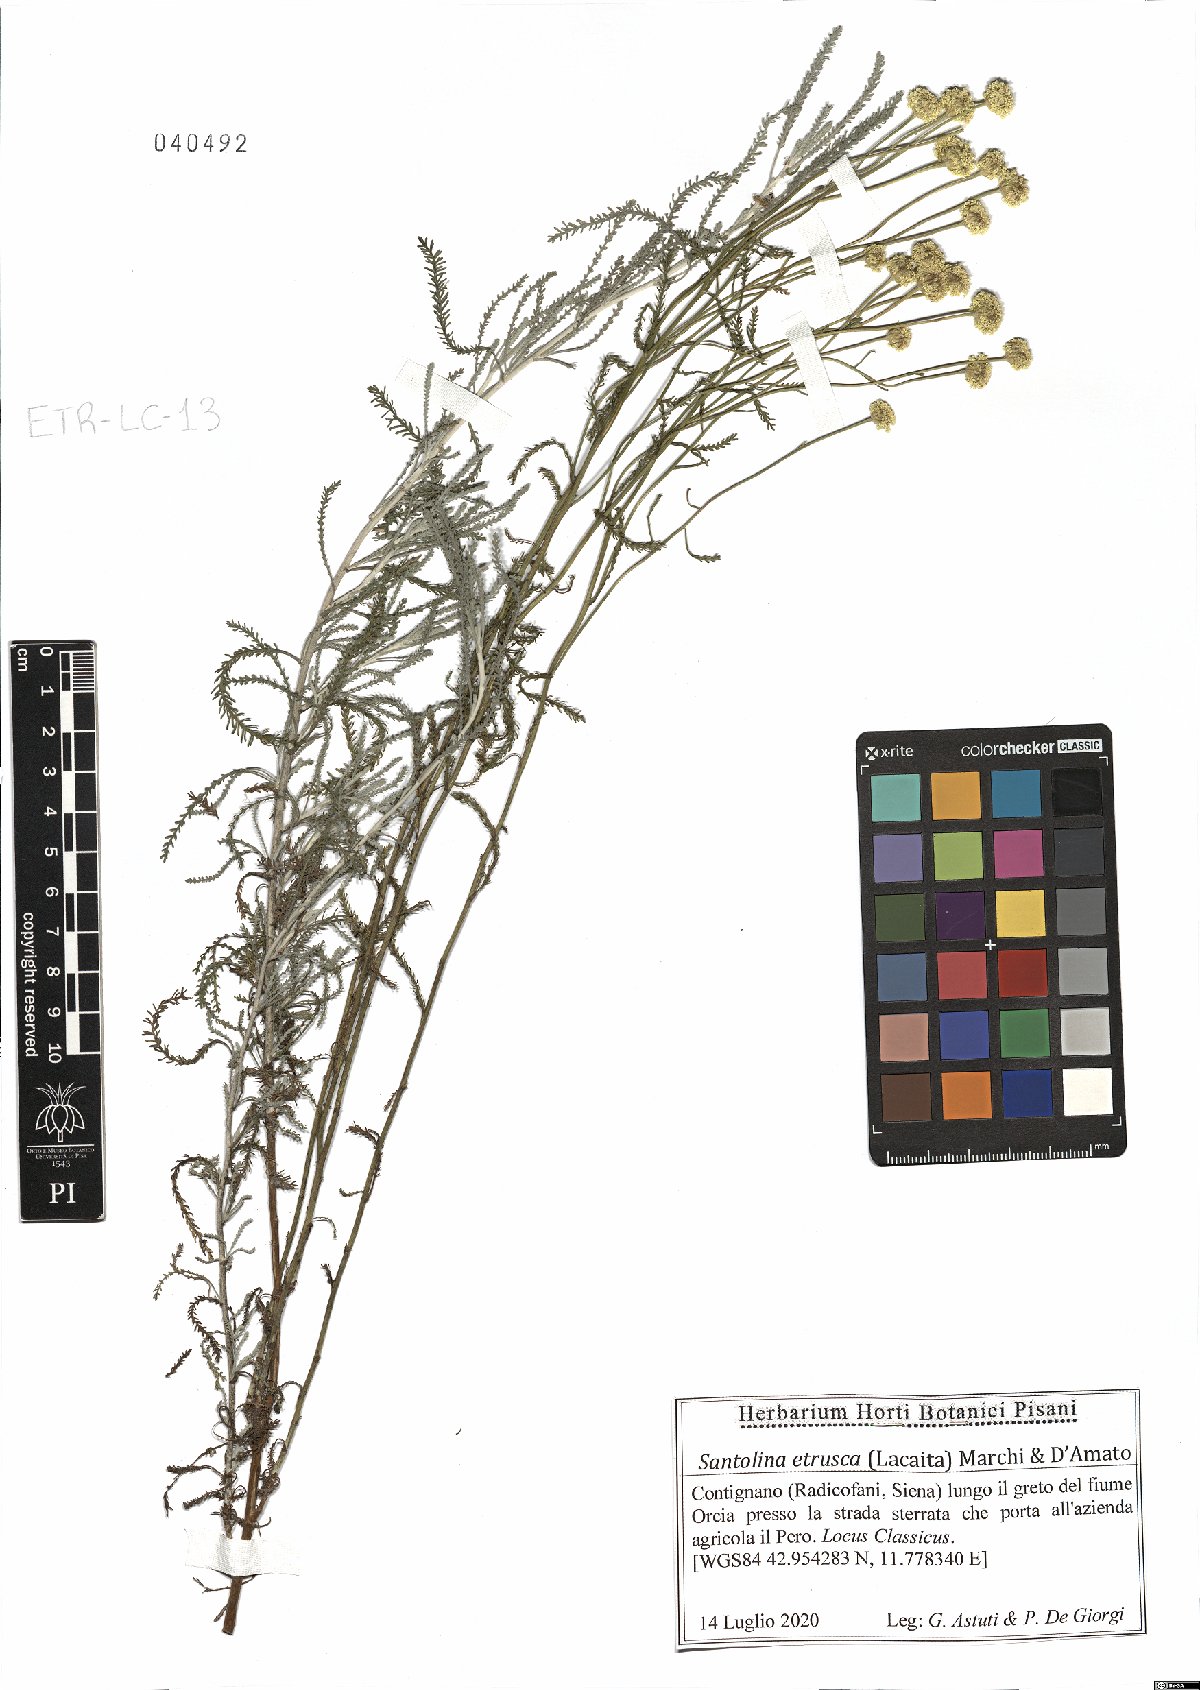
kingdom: Plantae
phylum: Tracheophyta
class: Magnoliopsida
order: Asterales
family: Asteraceae
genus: Santolina
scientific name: Santolina etrusca
